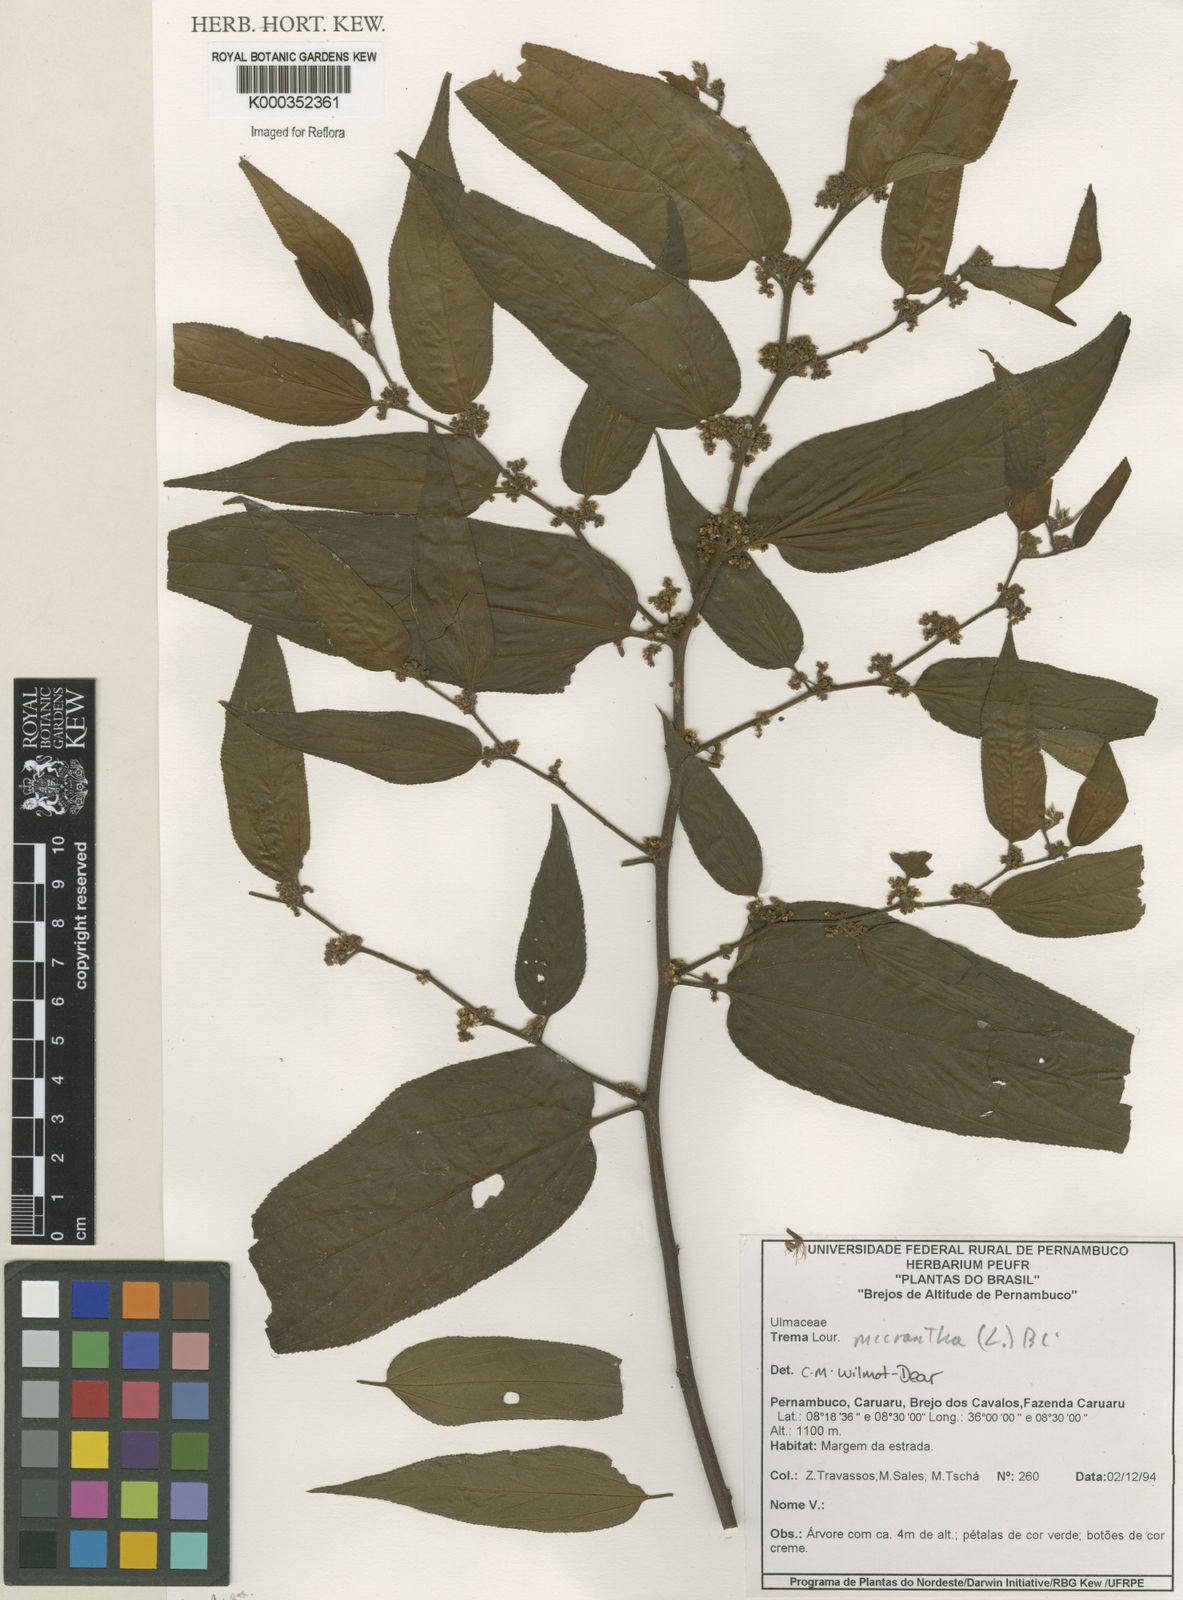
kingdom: Plantae
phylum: Tracheophyta
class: Magnoliopsida
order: Rosales
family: Cannabaceae
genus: Trema
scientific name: Trema micranthum
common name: Jamaican nettletree
